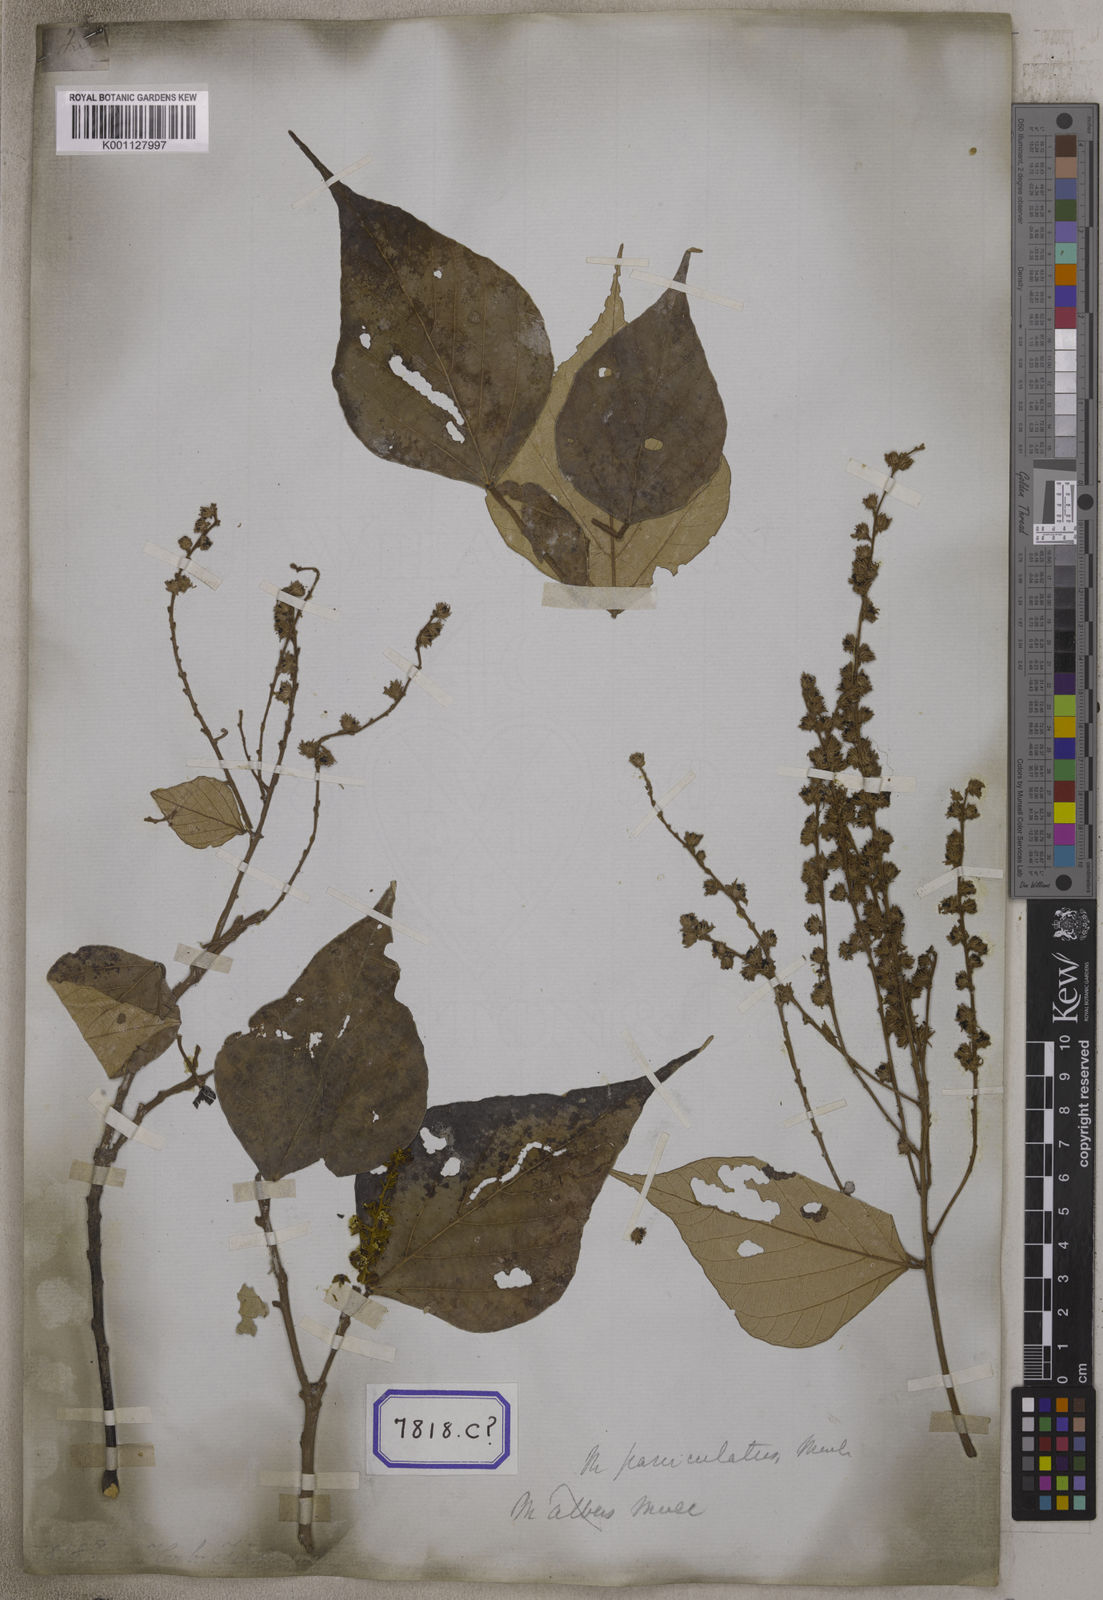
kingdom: Plantae
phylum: Tracheophyta
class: Magnoliopsida
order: Malpighiales
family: Euphorbiaceae
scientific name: Euphorbiaceae
